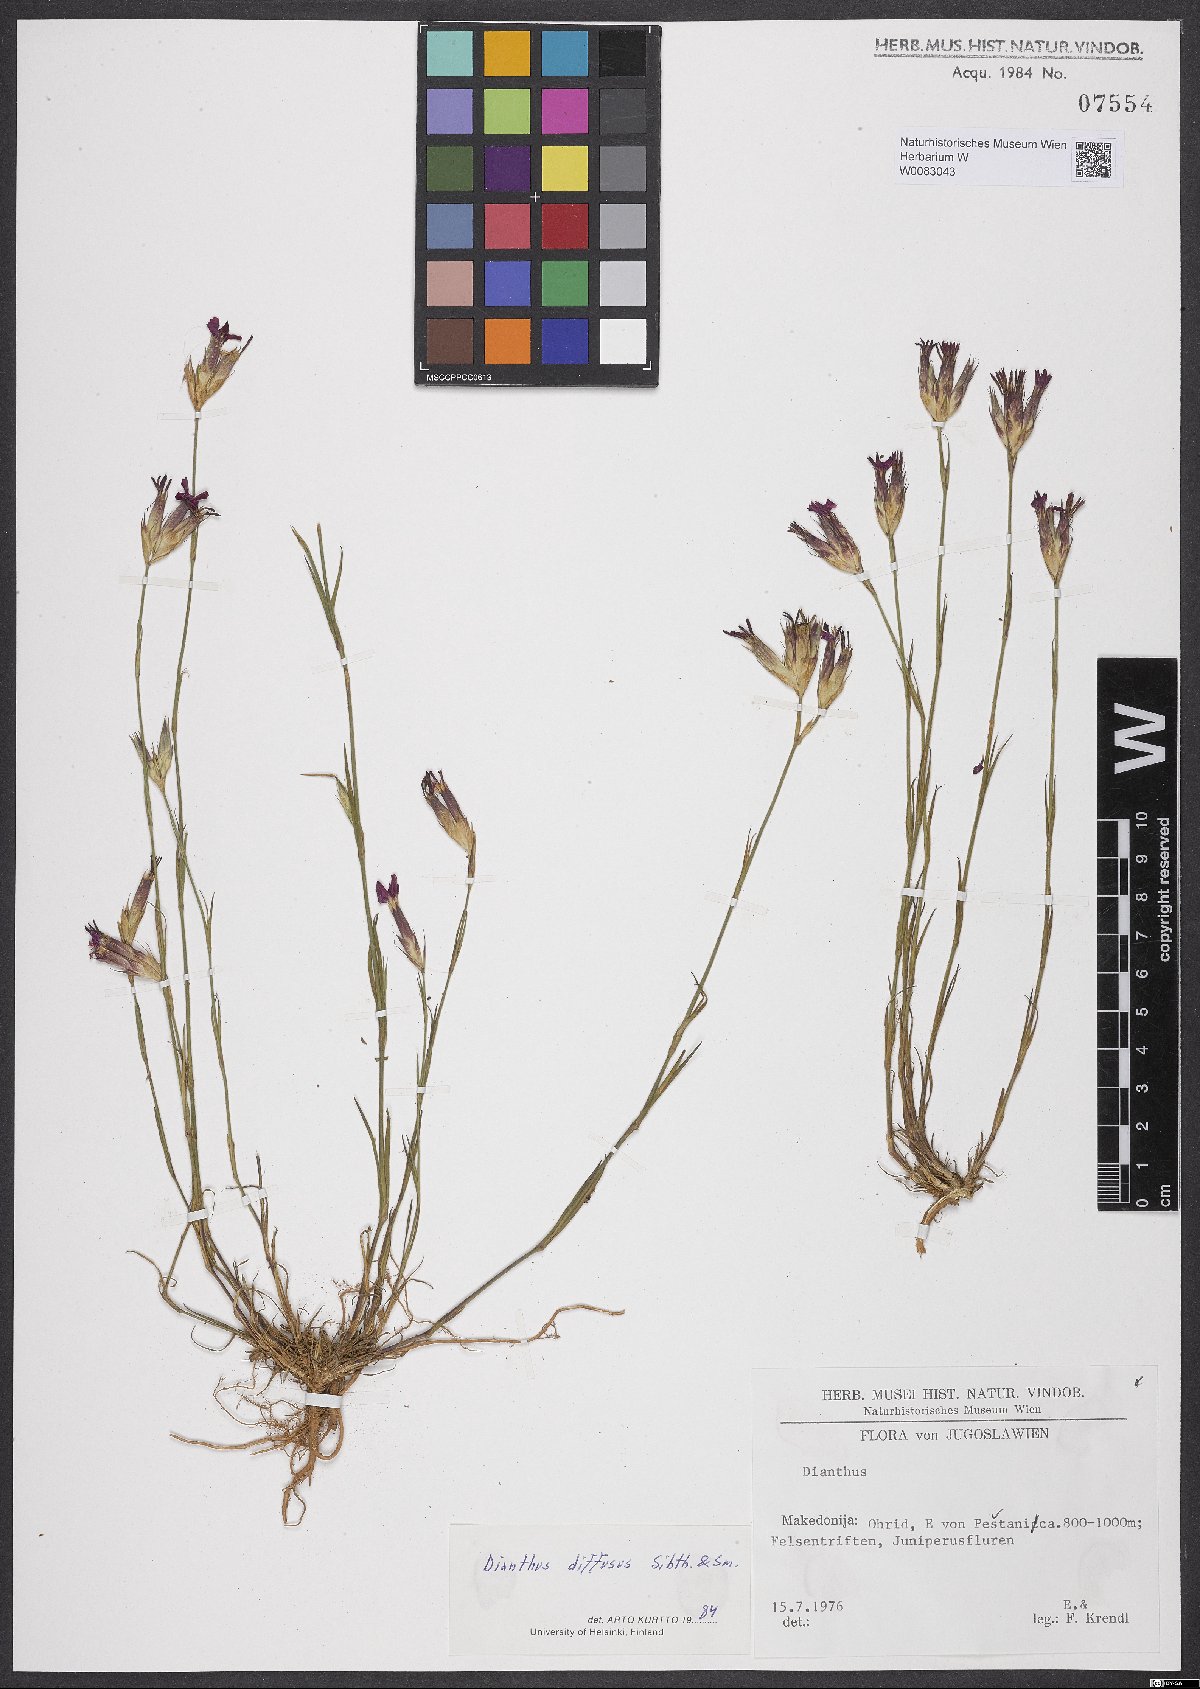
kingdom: Plantae
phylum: Tracheophyta
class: Magnoliopsida
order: Caryophyllales
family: Caryophyllaceae
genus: Dianthus
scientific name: Dianthus diffusus
